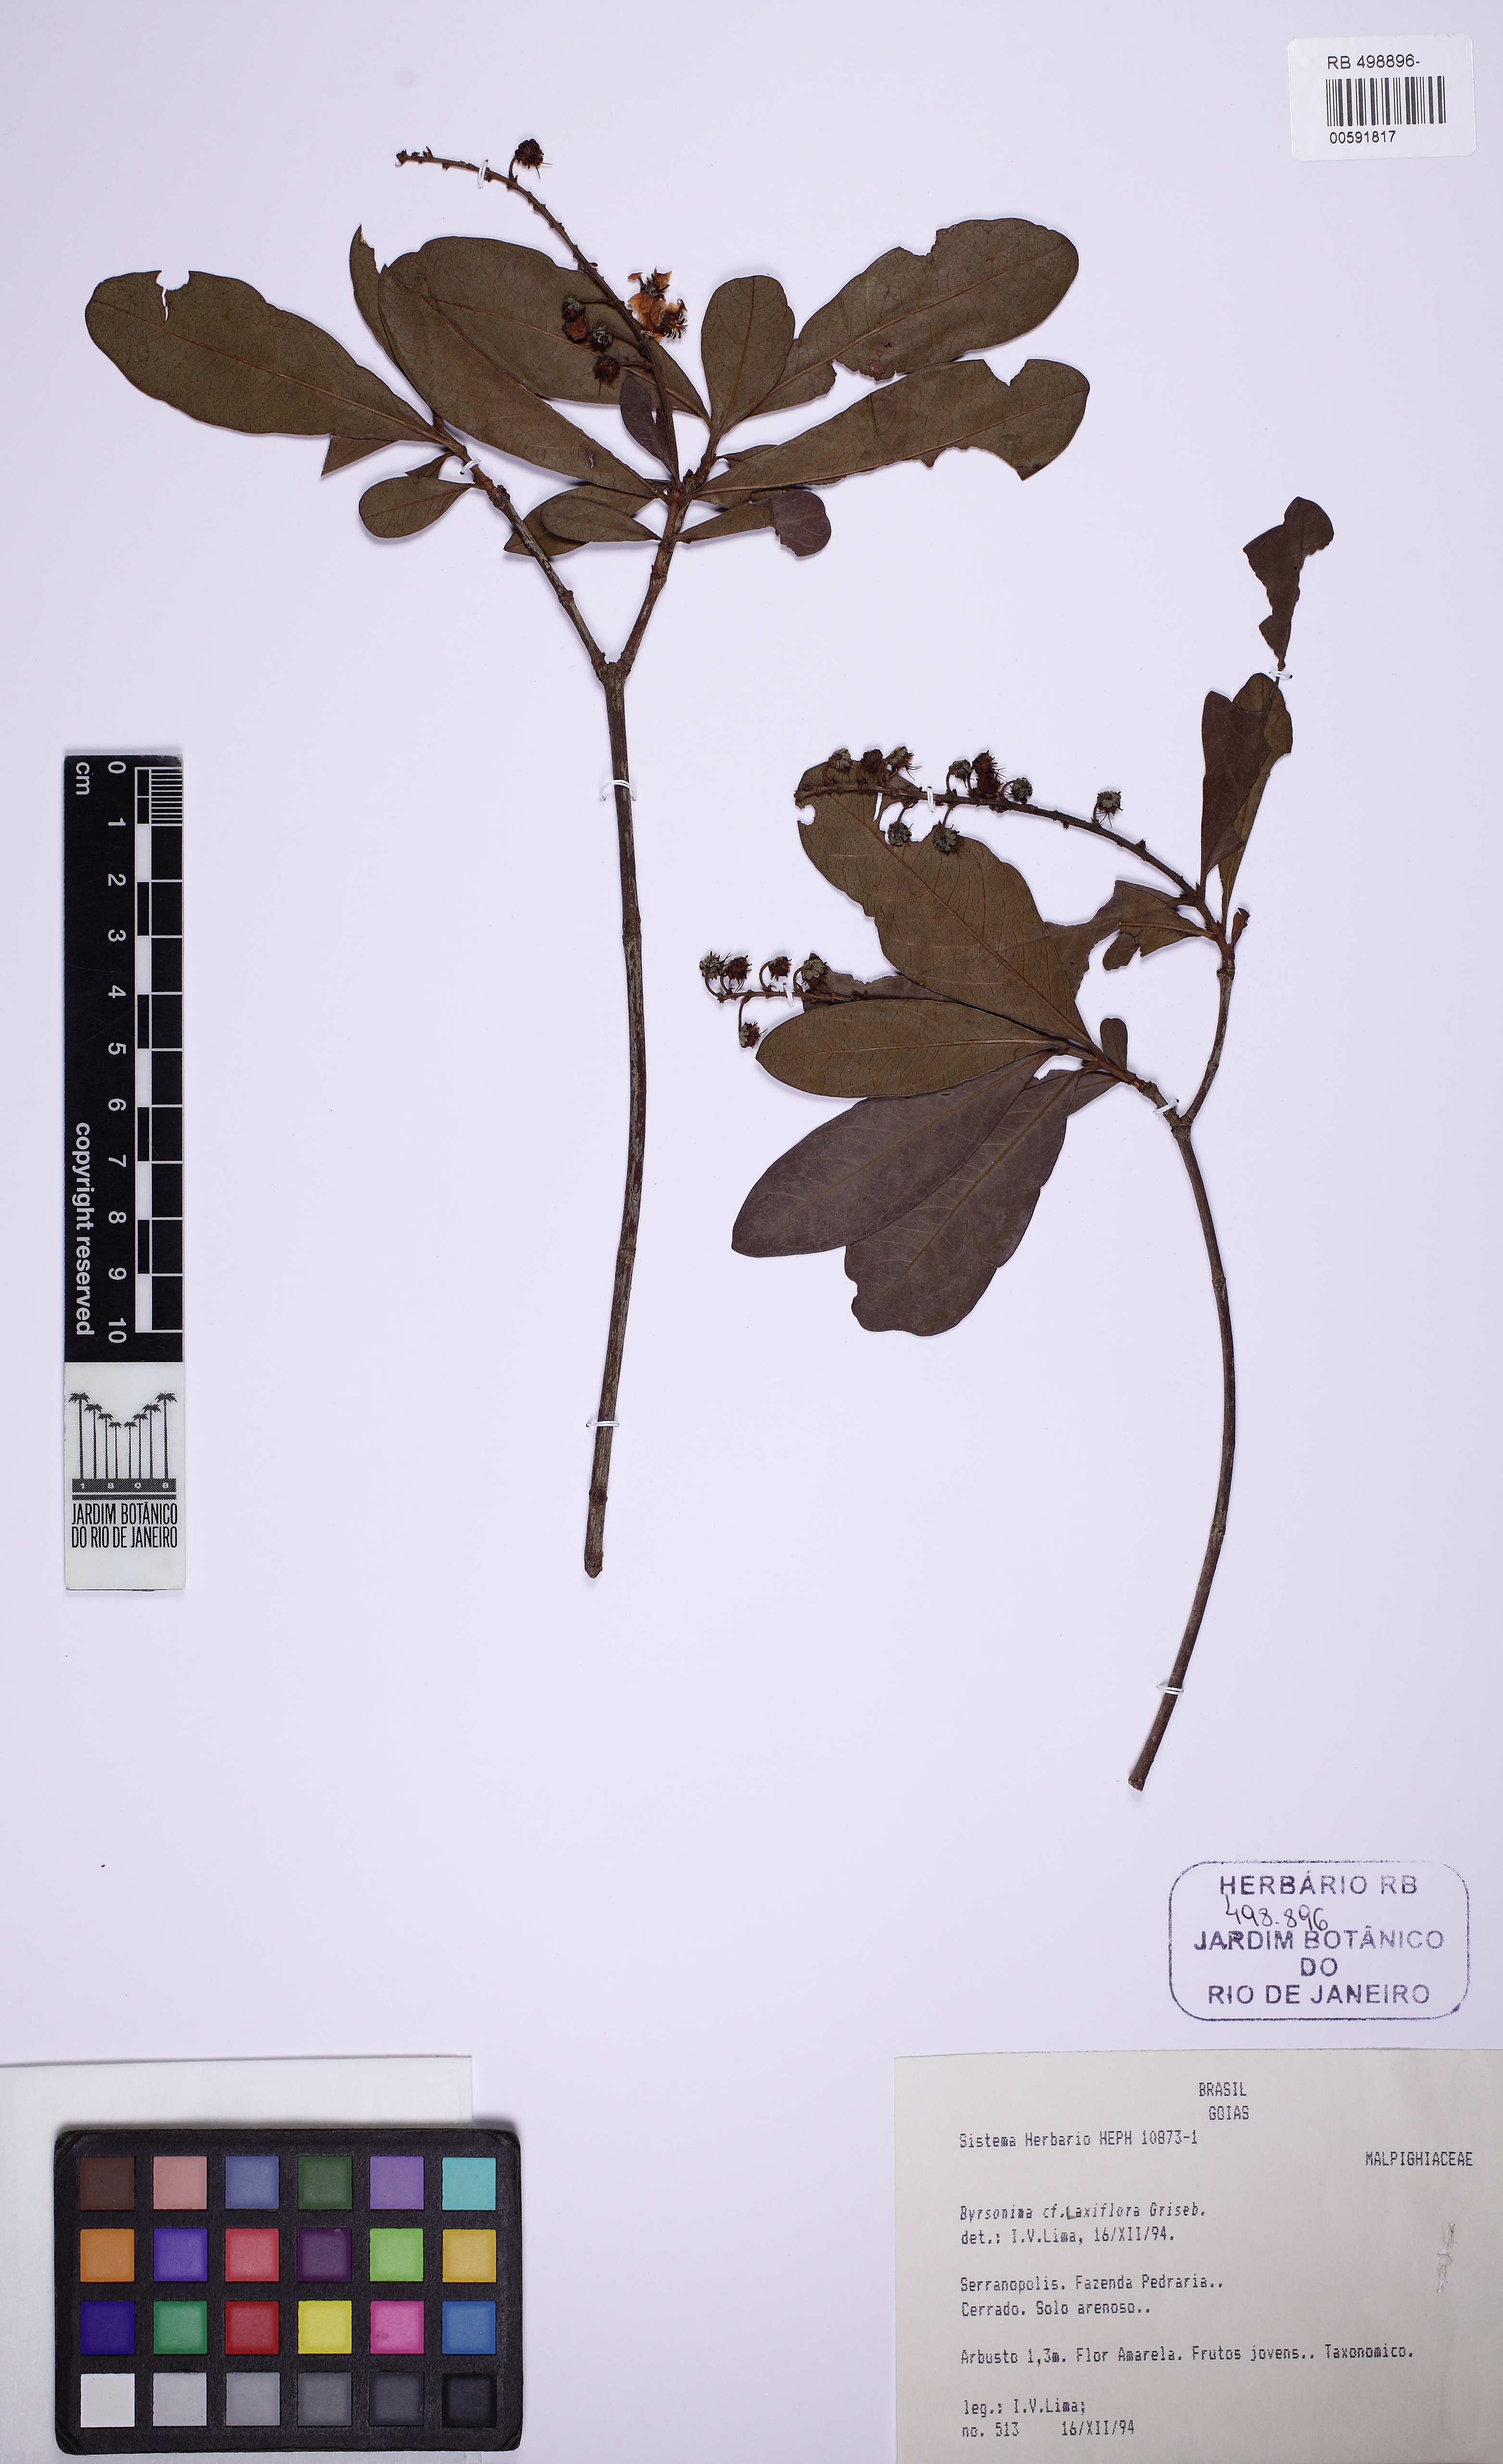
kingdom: Plantae
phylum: Tracheophyta
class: Magnoliopsida
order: Malpighiales
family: Malpighiaceae
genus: Byrsonima
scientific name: Byrsonima laxiflora
